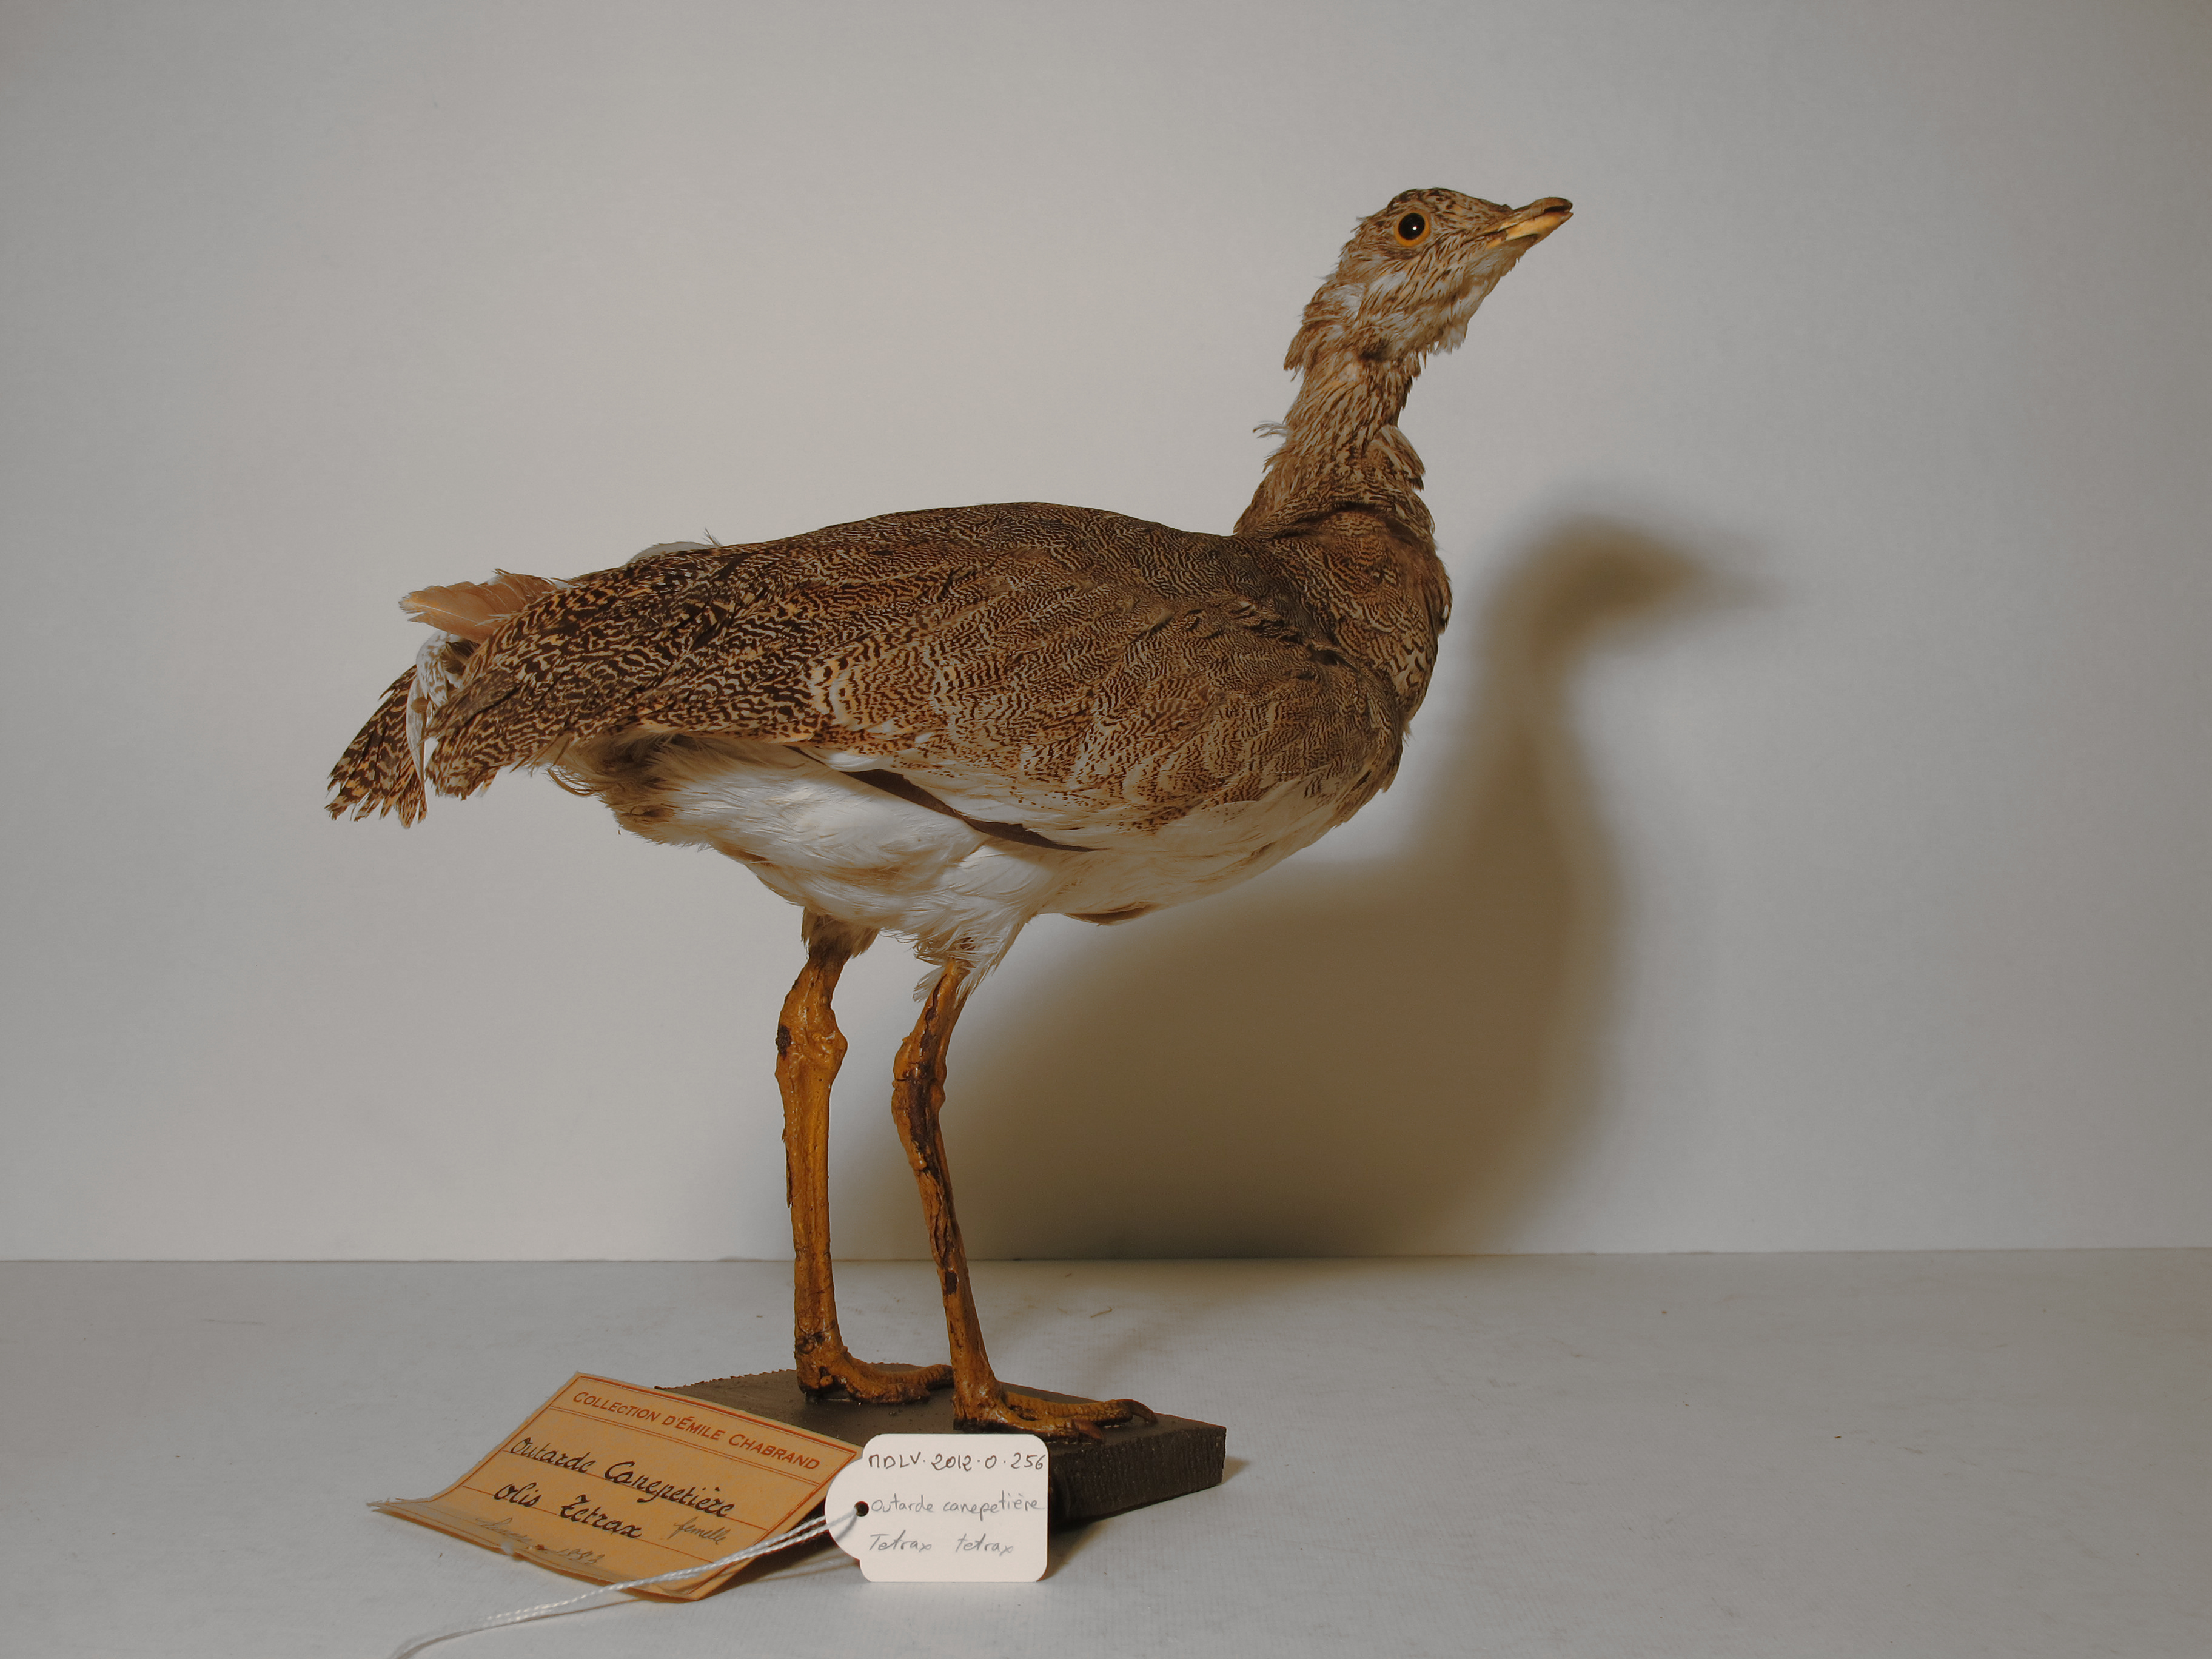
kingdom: Animalia
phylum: Chordata
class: Aves
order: Otidiformes
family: Otididae
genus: Tetrax
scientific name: Tetrax tetrax
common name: Little Bustard
